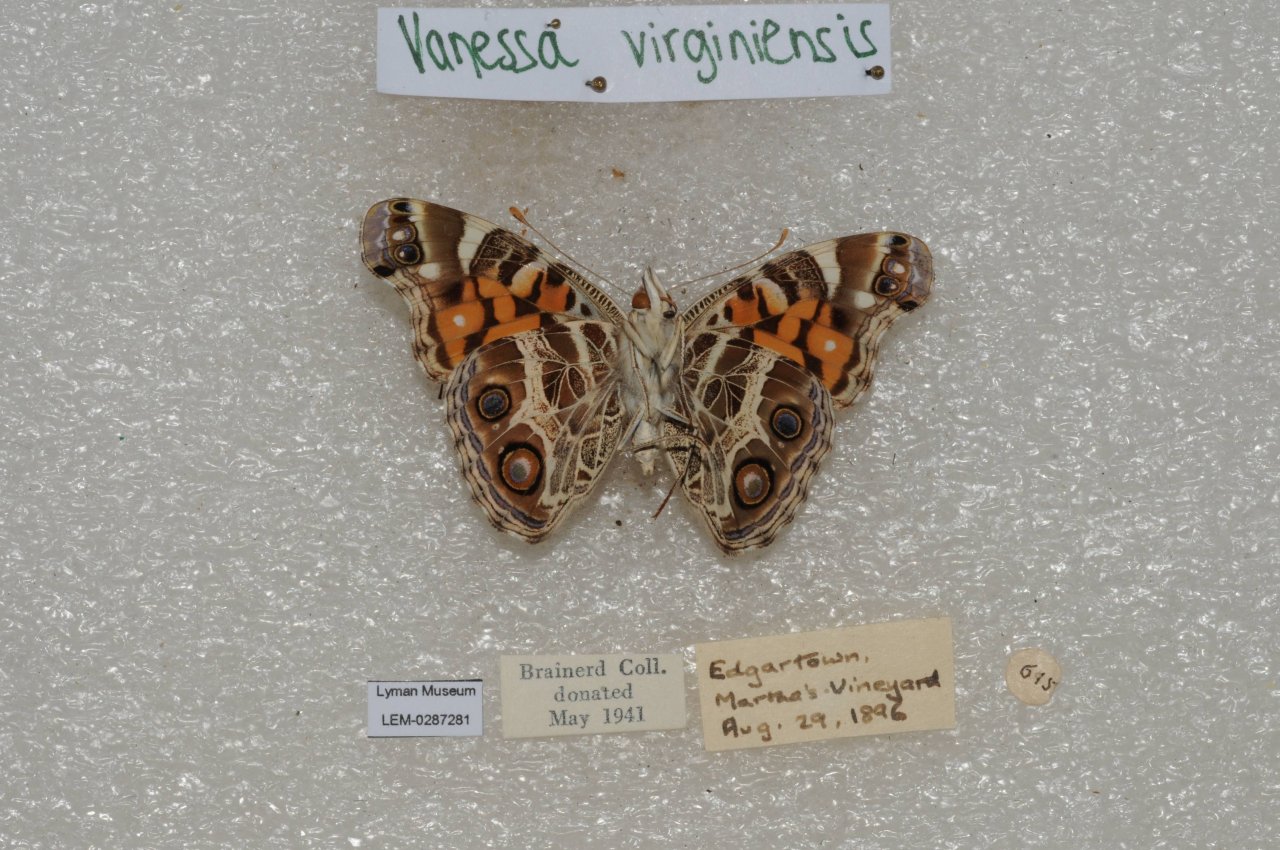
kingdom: Animalia
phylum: Arthropoda
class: Insecta
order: Lepidoptera
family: Nymphalidae
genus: Vanessa
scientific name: Vanessa virginiensis
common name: American Lady
